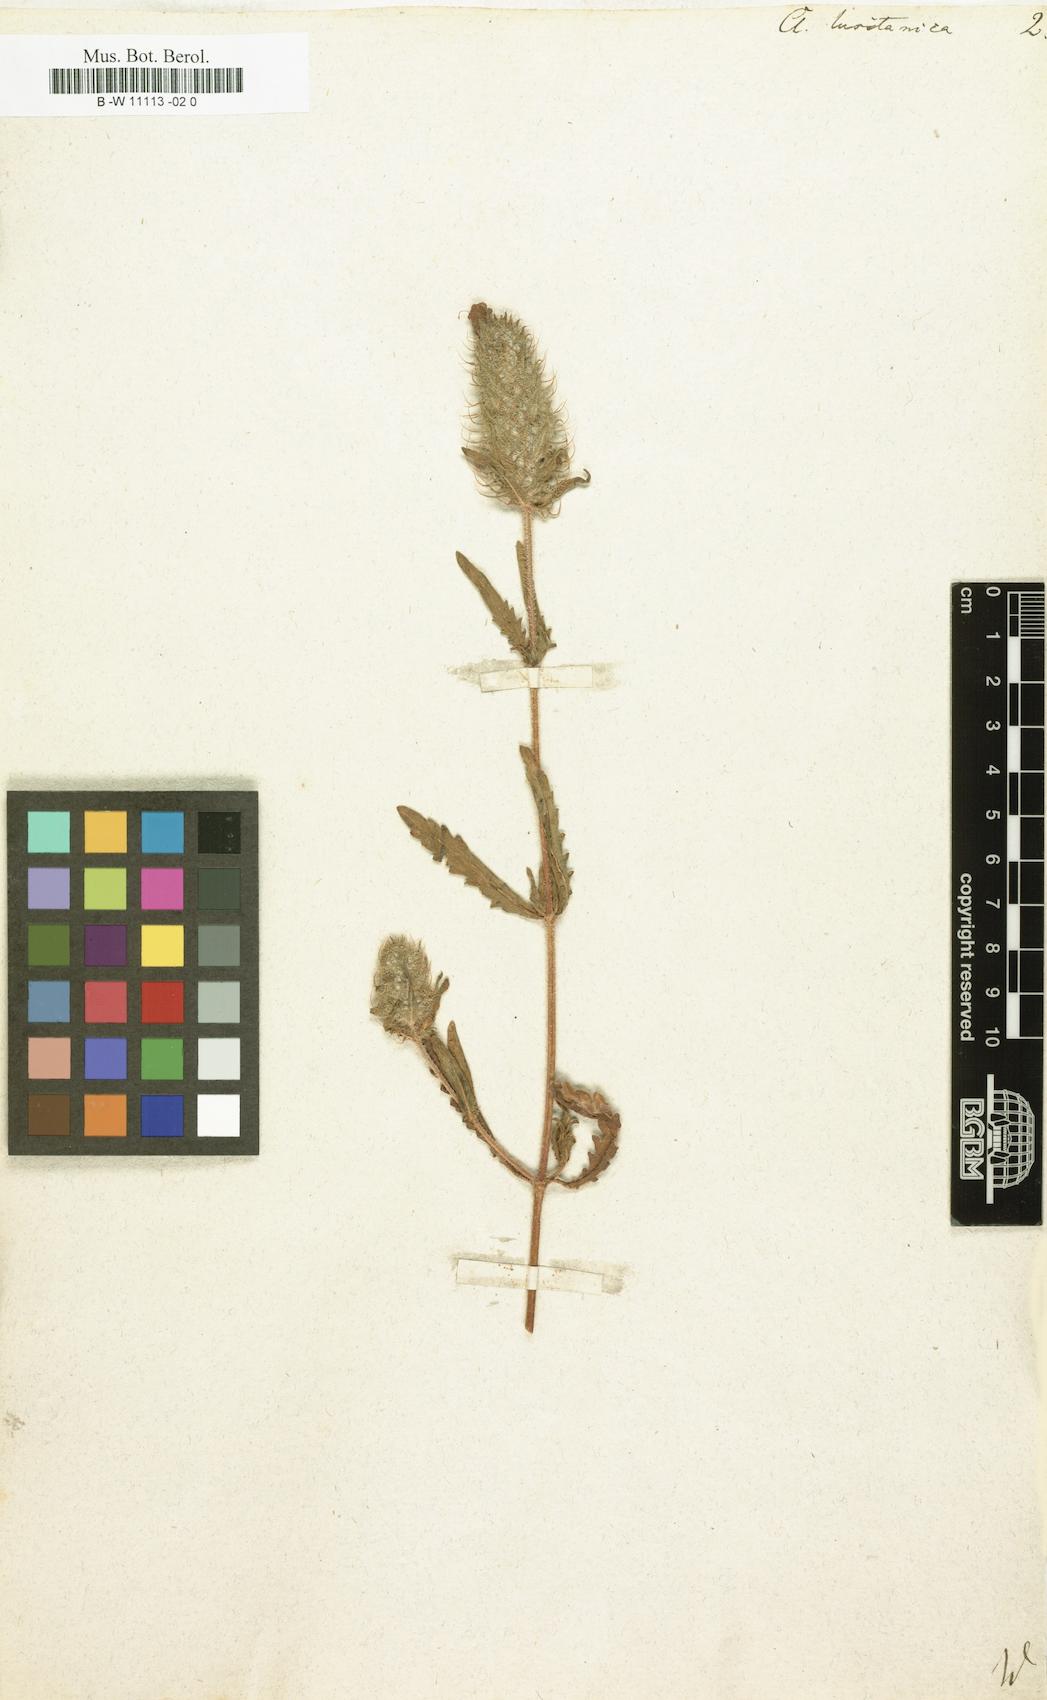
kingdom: Plantae
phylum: Tracheophyta
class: Magnoliopsida
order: Lamiales
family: Lamiaceae
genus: Cleonia
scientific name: Cleonia lusitanica
